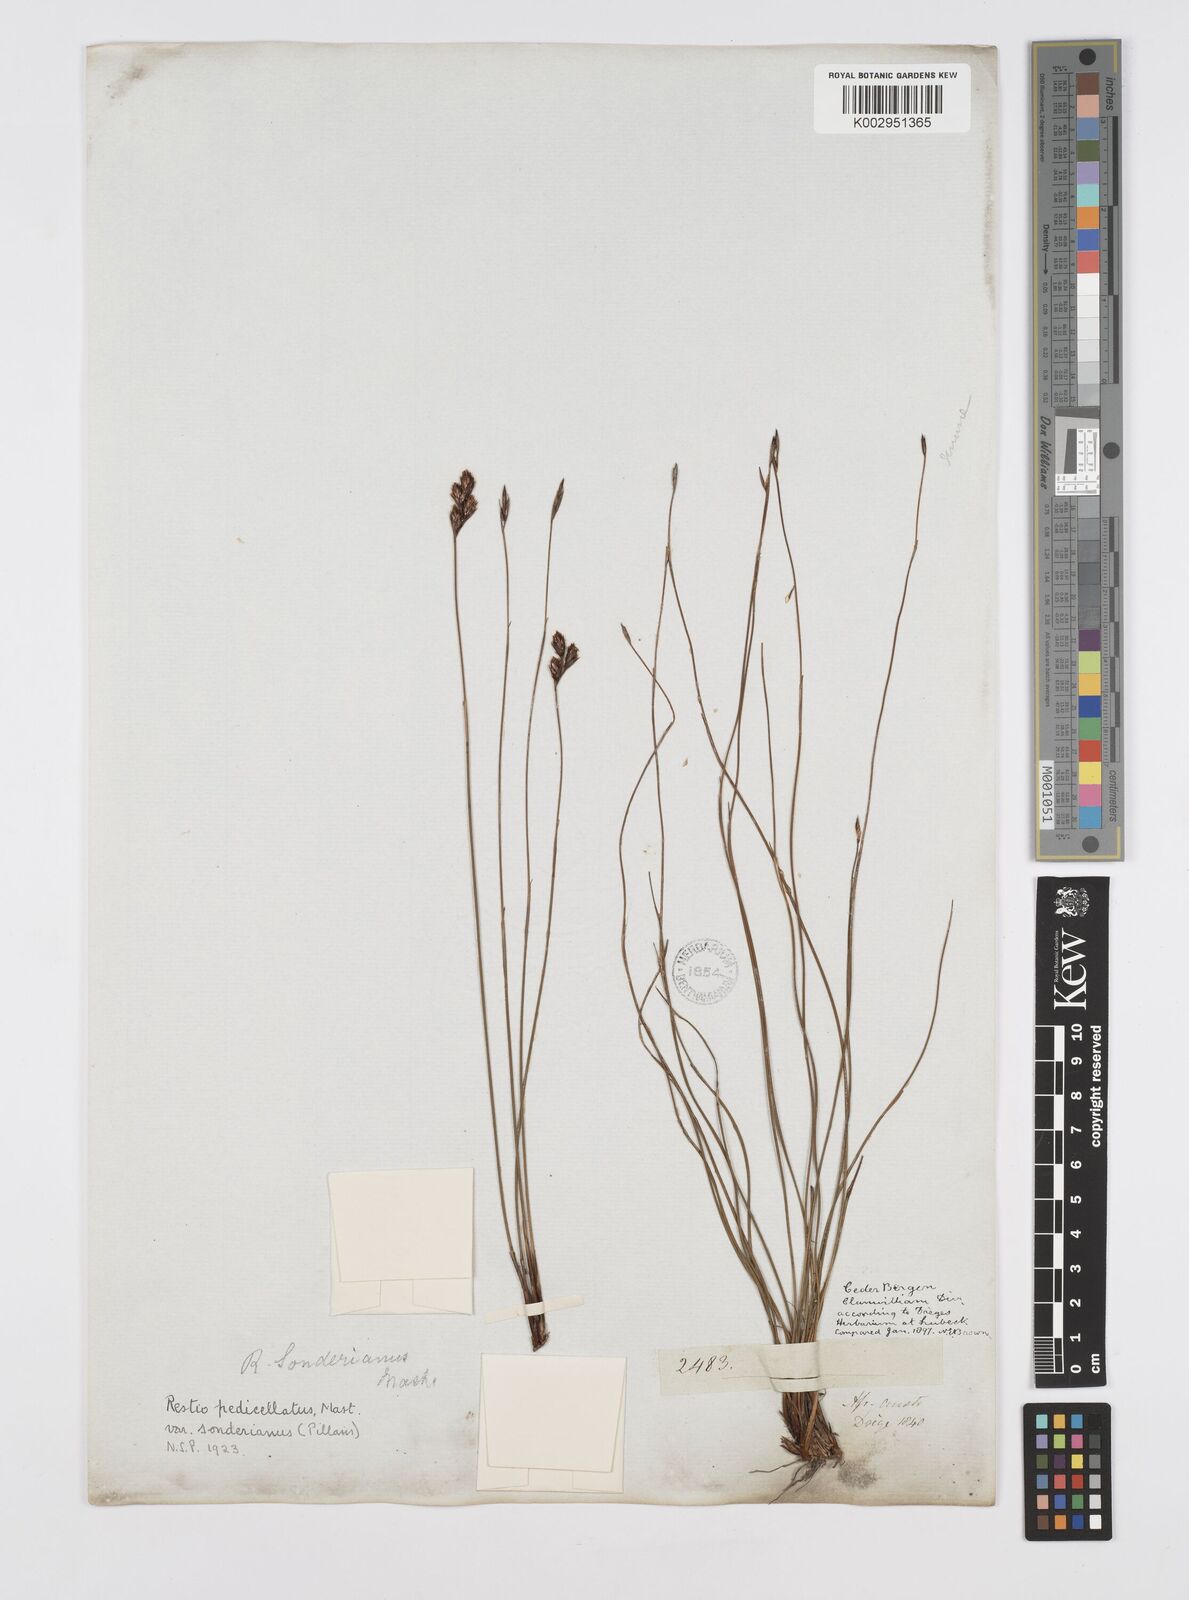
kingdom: Plantae
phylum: Tracheophyta
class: Liliopsida
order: Poales
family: Restionaceae
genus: Restio
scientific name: Restio pedicellatus
